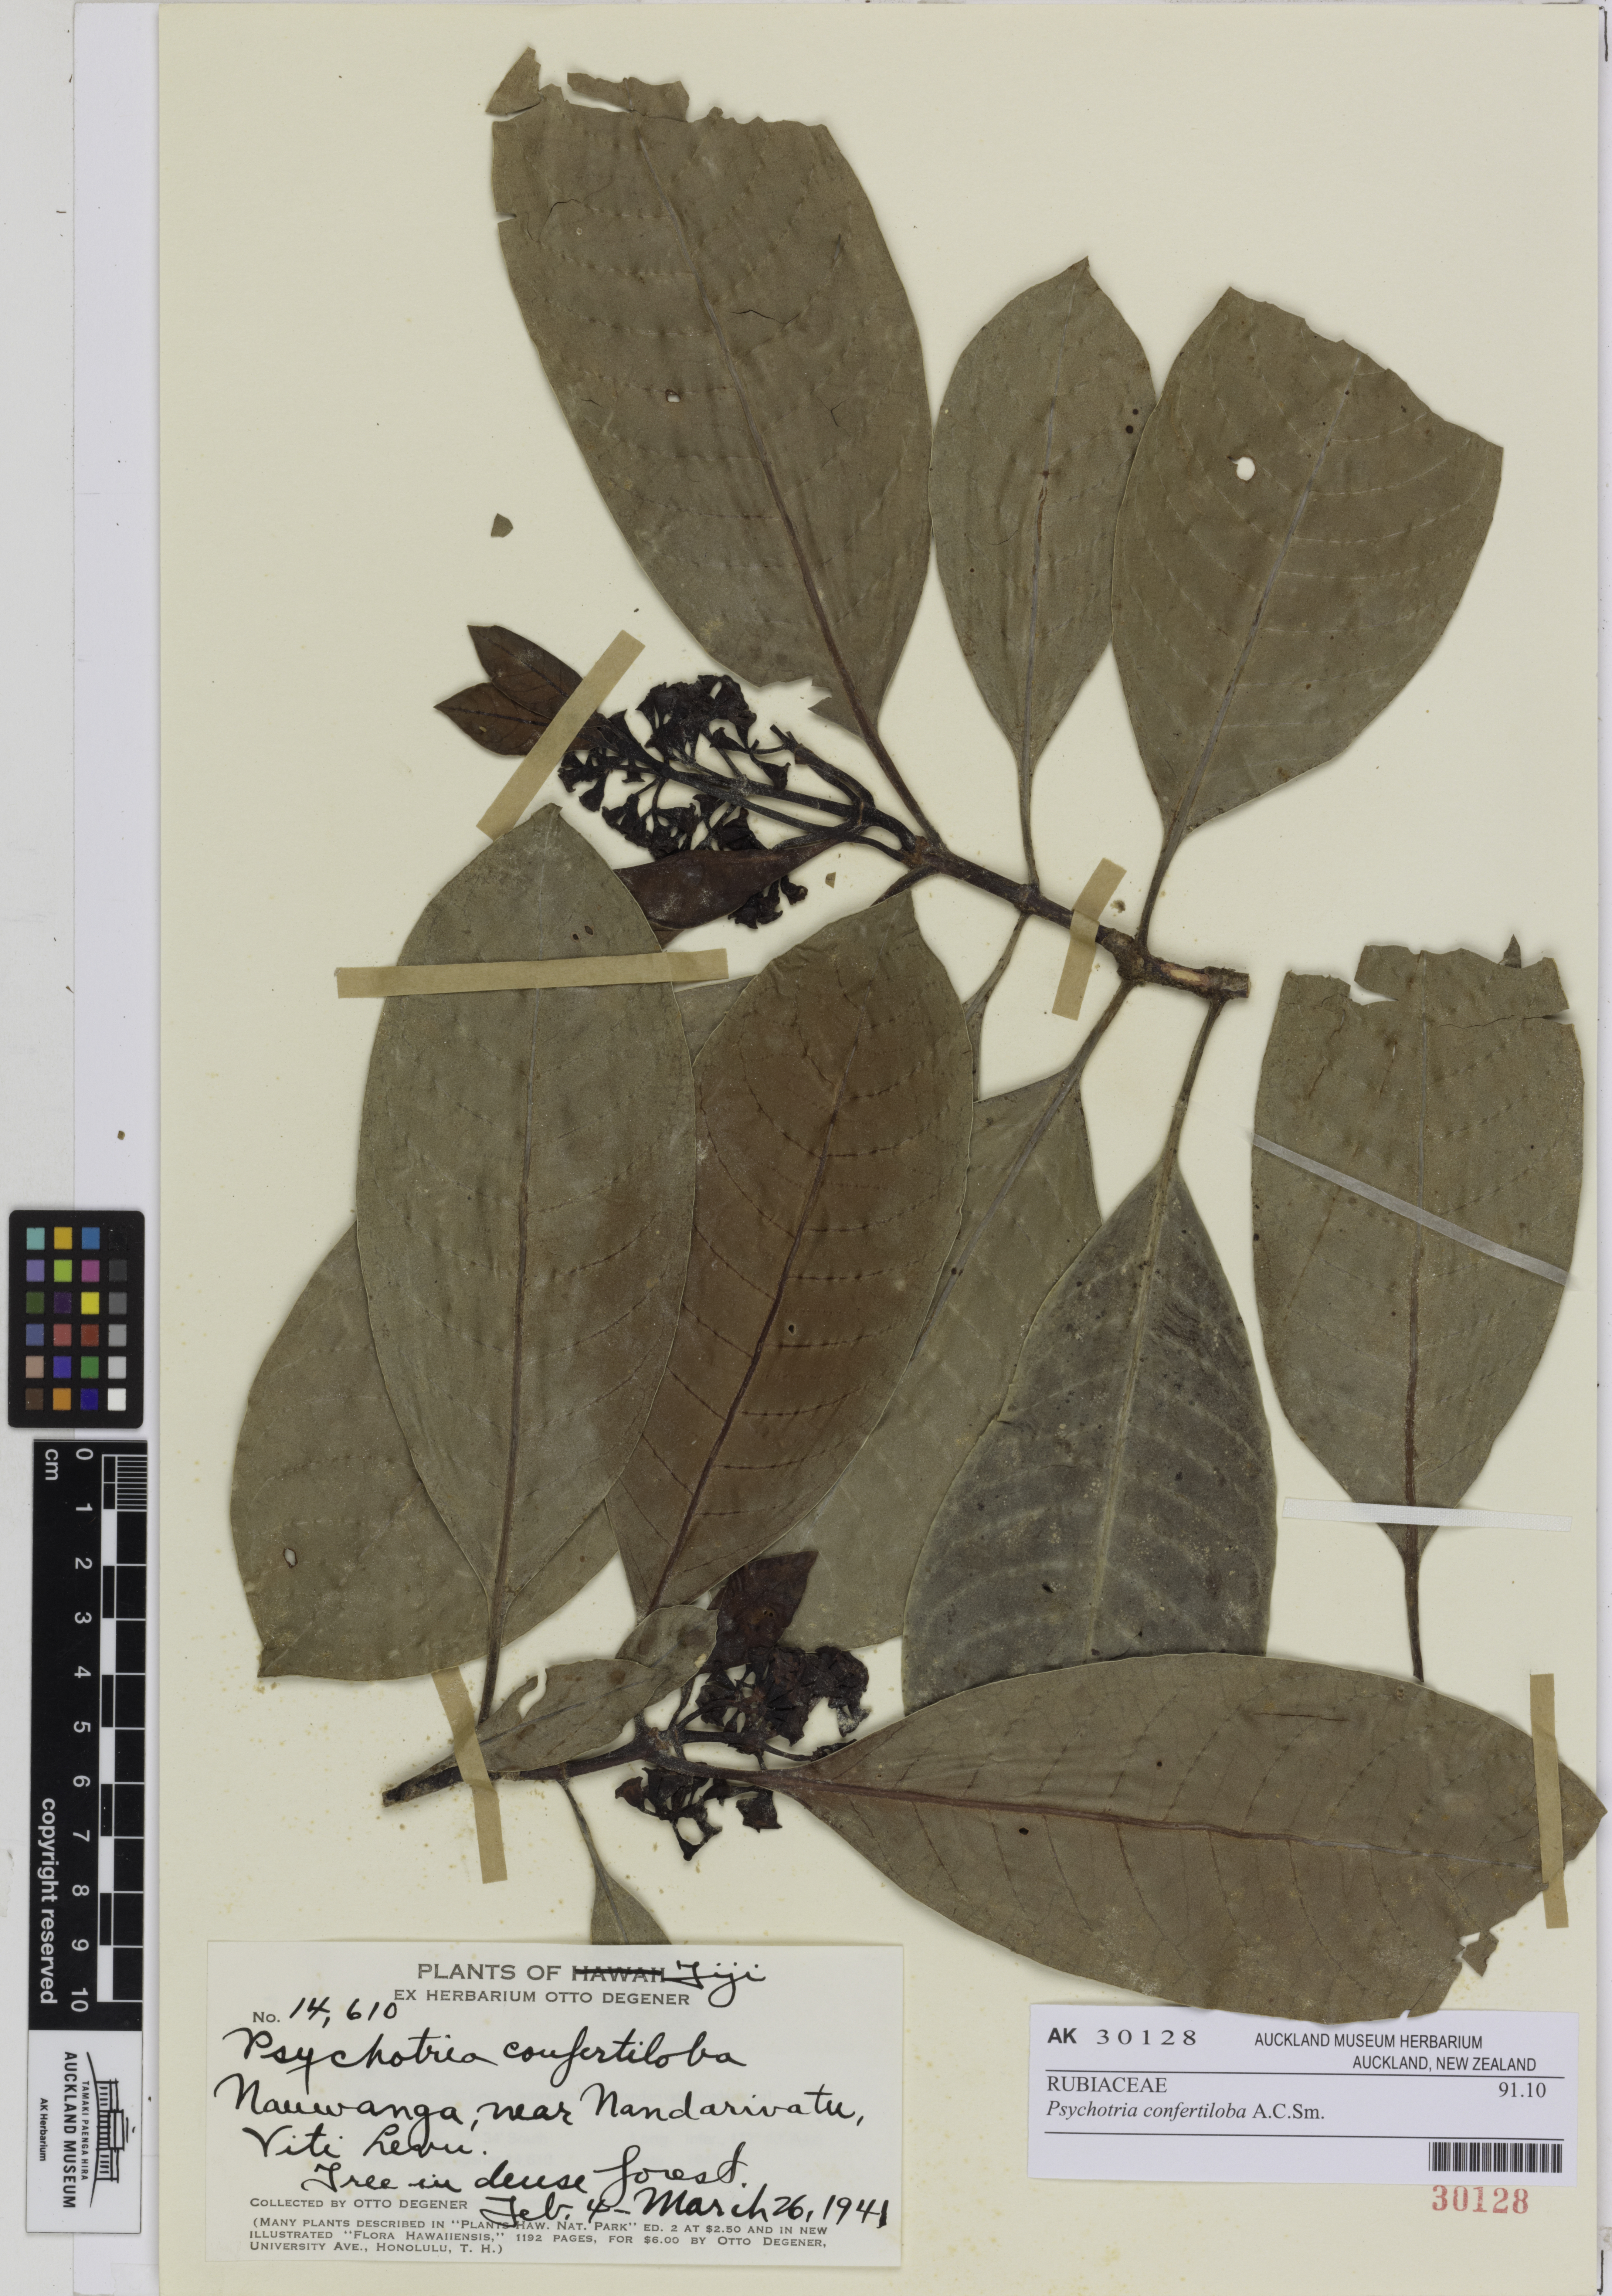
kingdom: Plantae
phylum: Tracheophyta
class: Magnoliopsida
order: Gentianales
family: Rubiaceae
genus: Psychotria
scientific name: Psychotria confertiloba
